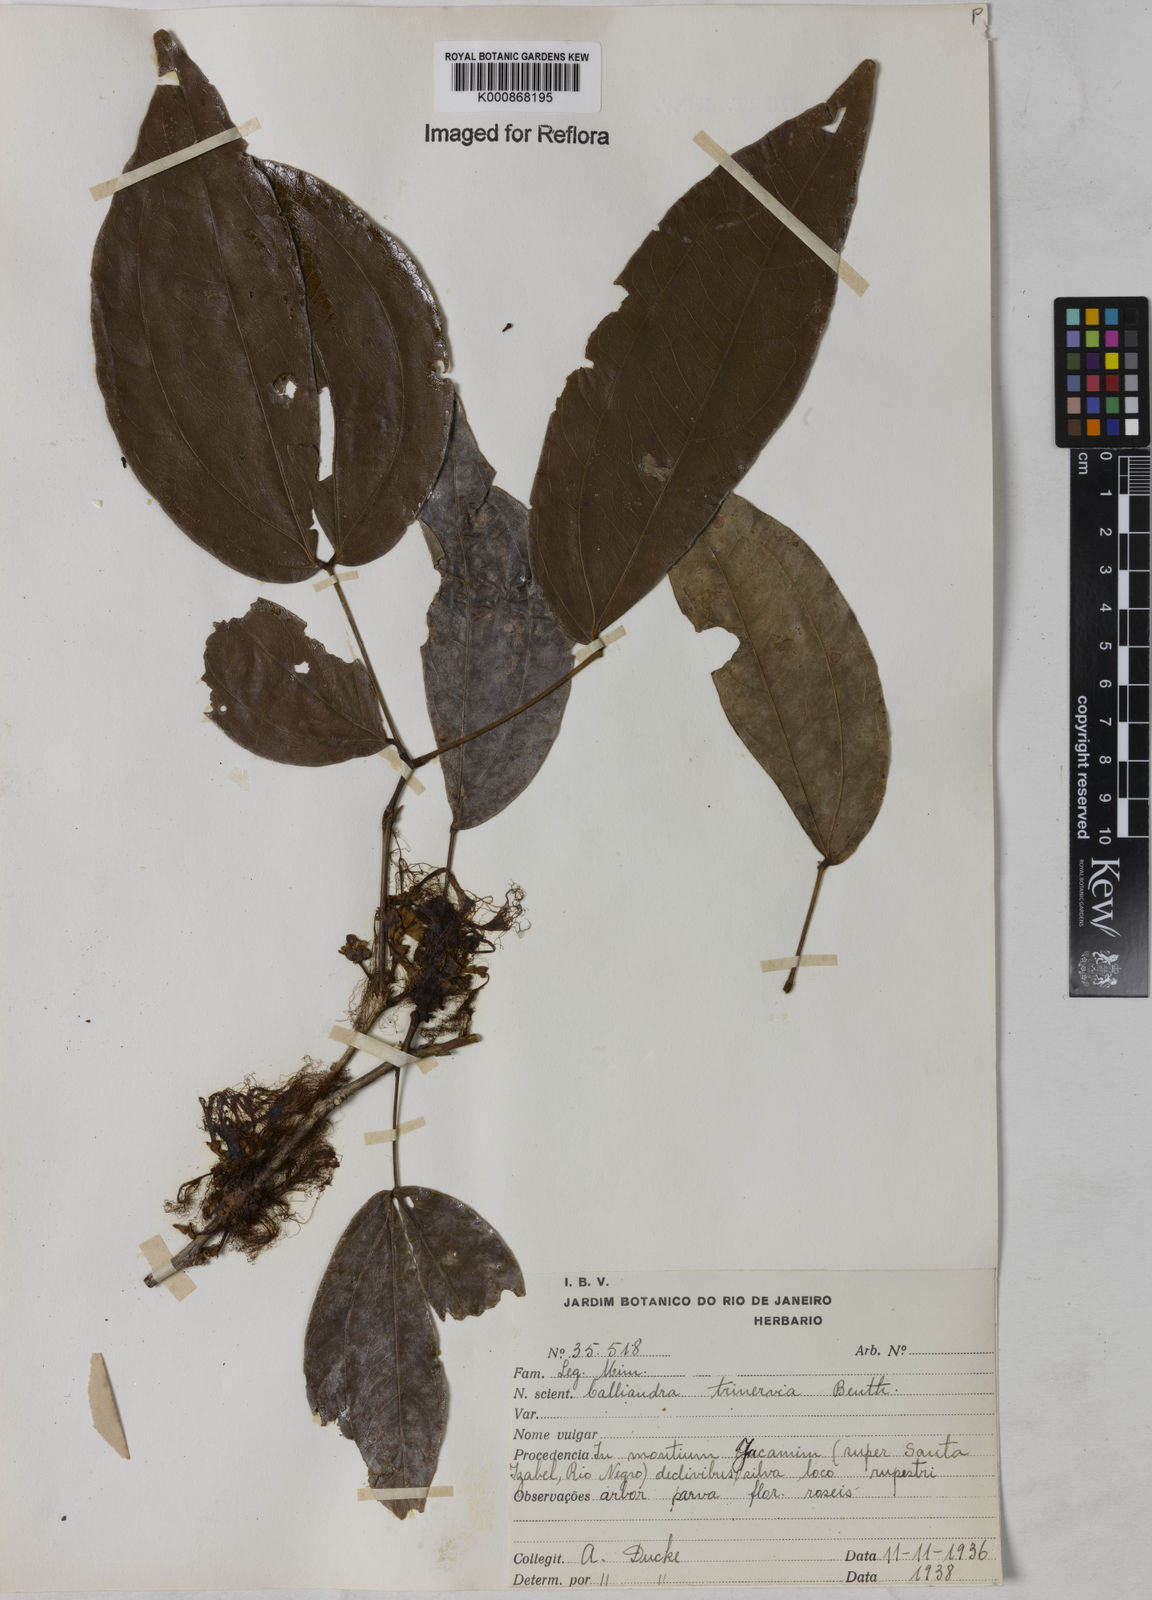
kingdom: Plantae
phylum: Tracheophyta
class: Magnoliopsida
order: Fabales
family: Fabaceae
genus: Calliandra
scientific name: Calliandra trinervia
